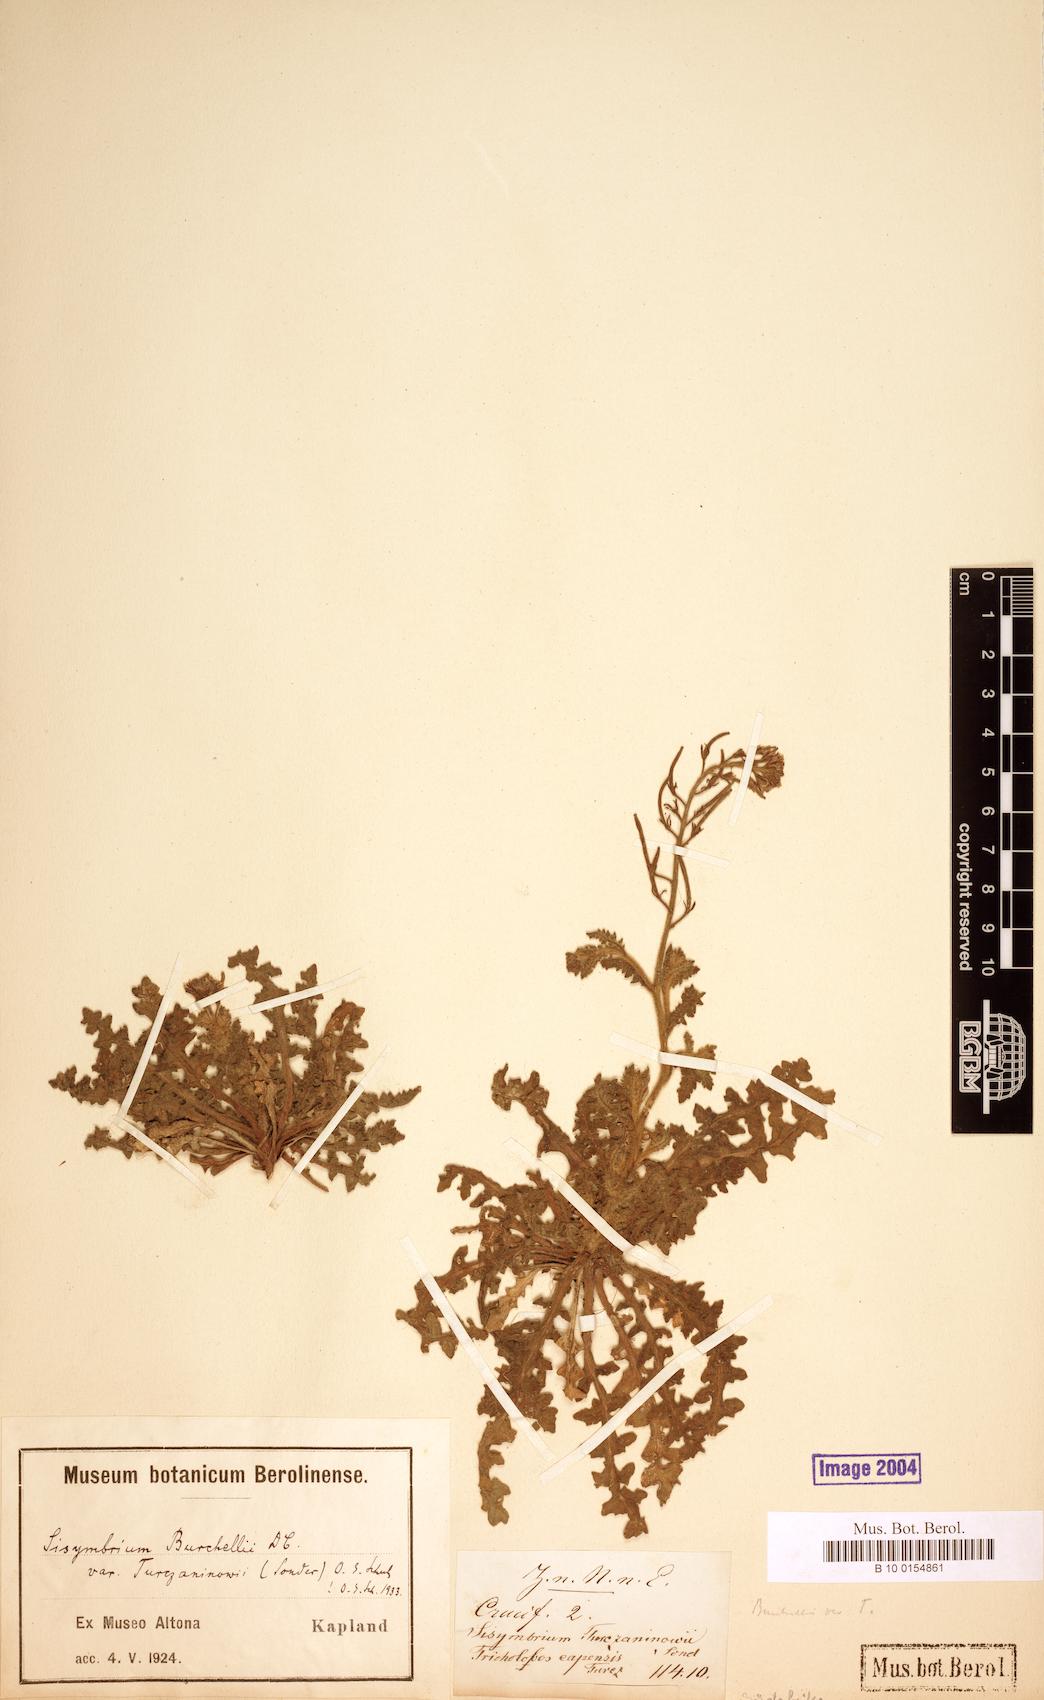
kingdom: Plantae
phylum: Tracheophyta
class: Magnoliopsida
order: Brassicales
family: Brassicaceae
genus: Sisymbrium
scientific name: Sisymbrium turczaninowii
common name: Russian rocket
